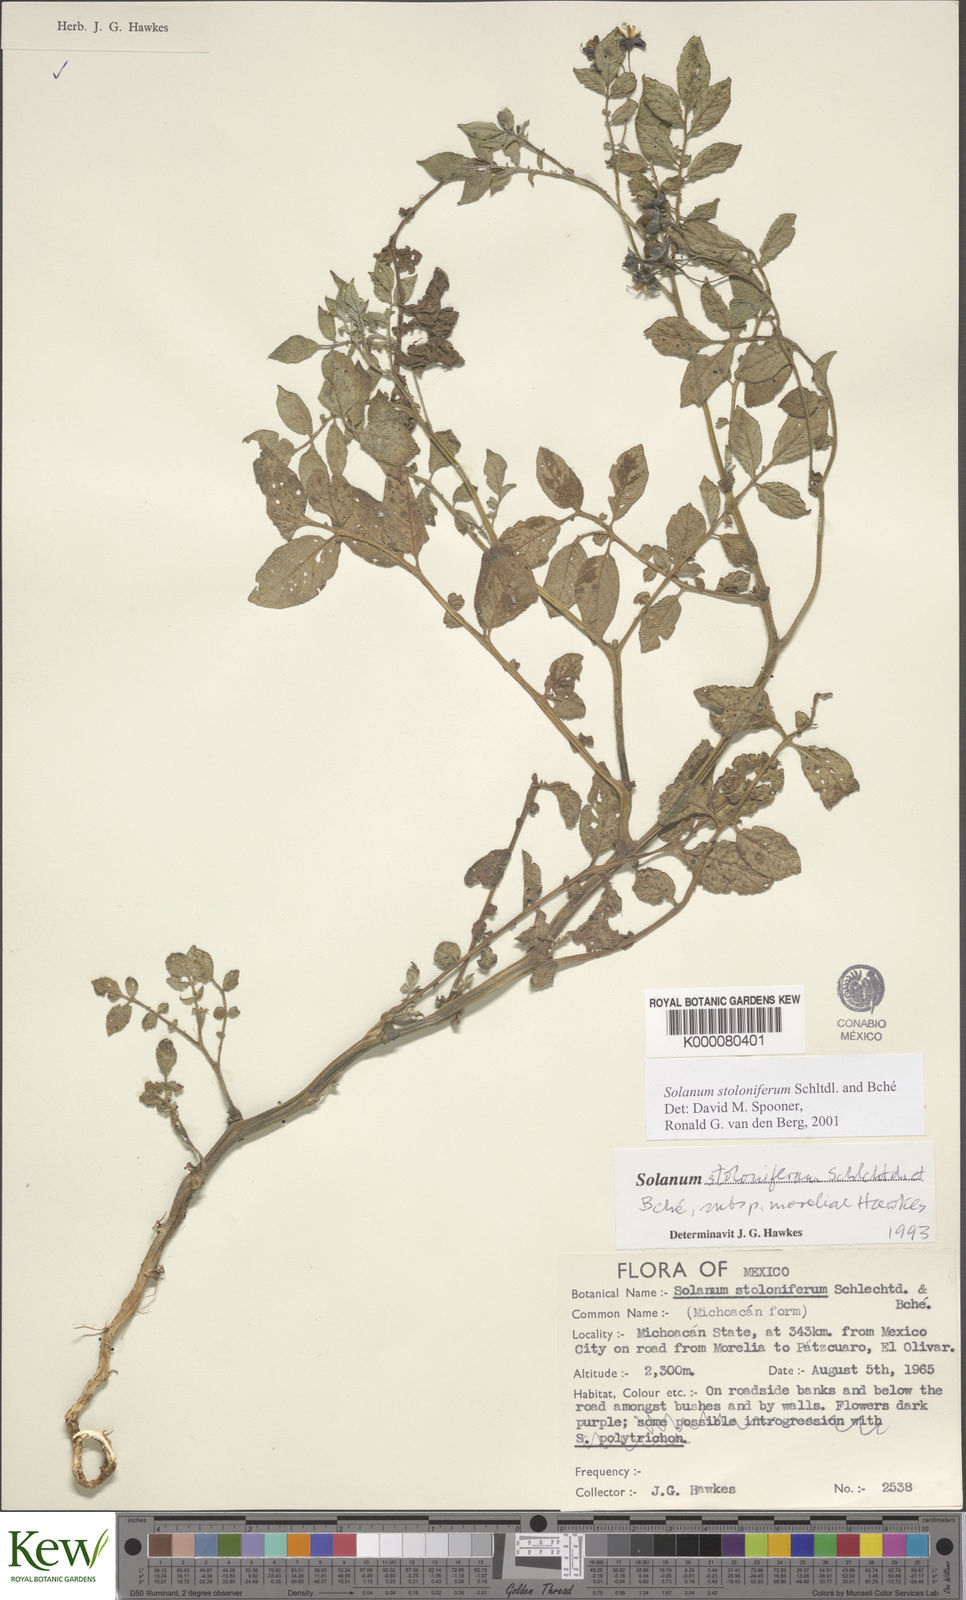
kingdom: Plantae
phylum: Tracheophyta
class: Magnoliopsida
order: Solanales
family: Solanaceae
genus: Solanum
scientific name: Solanum stoloniferum
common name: Fendler's nighshade
